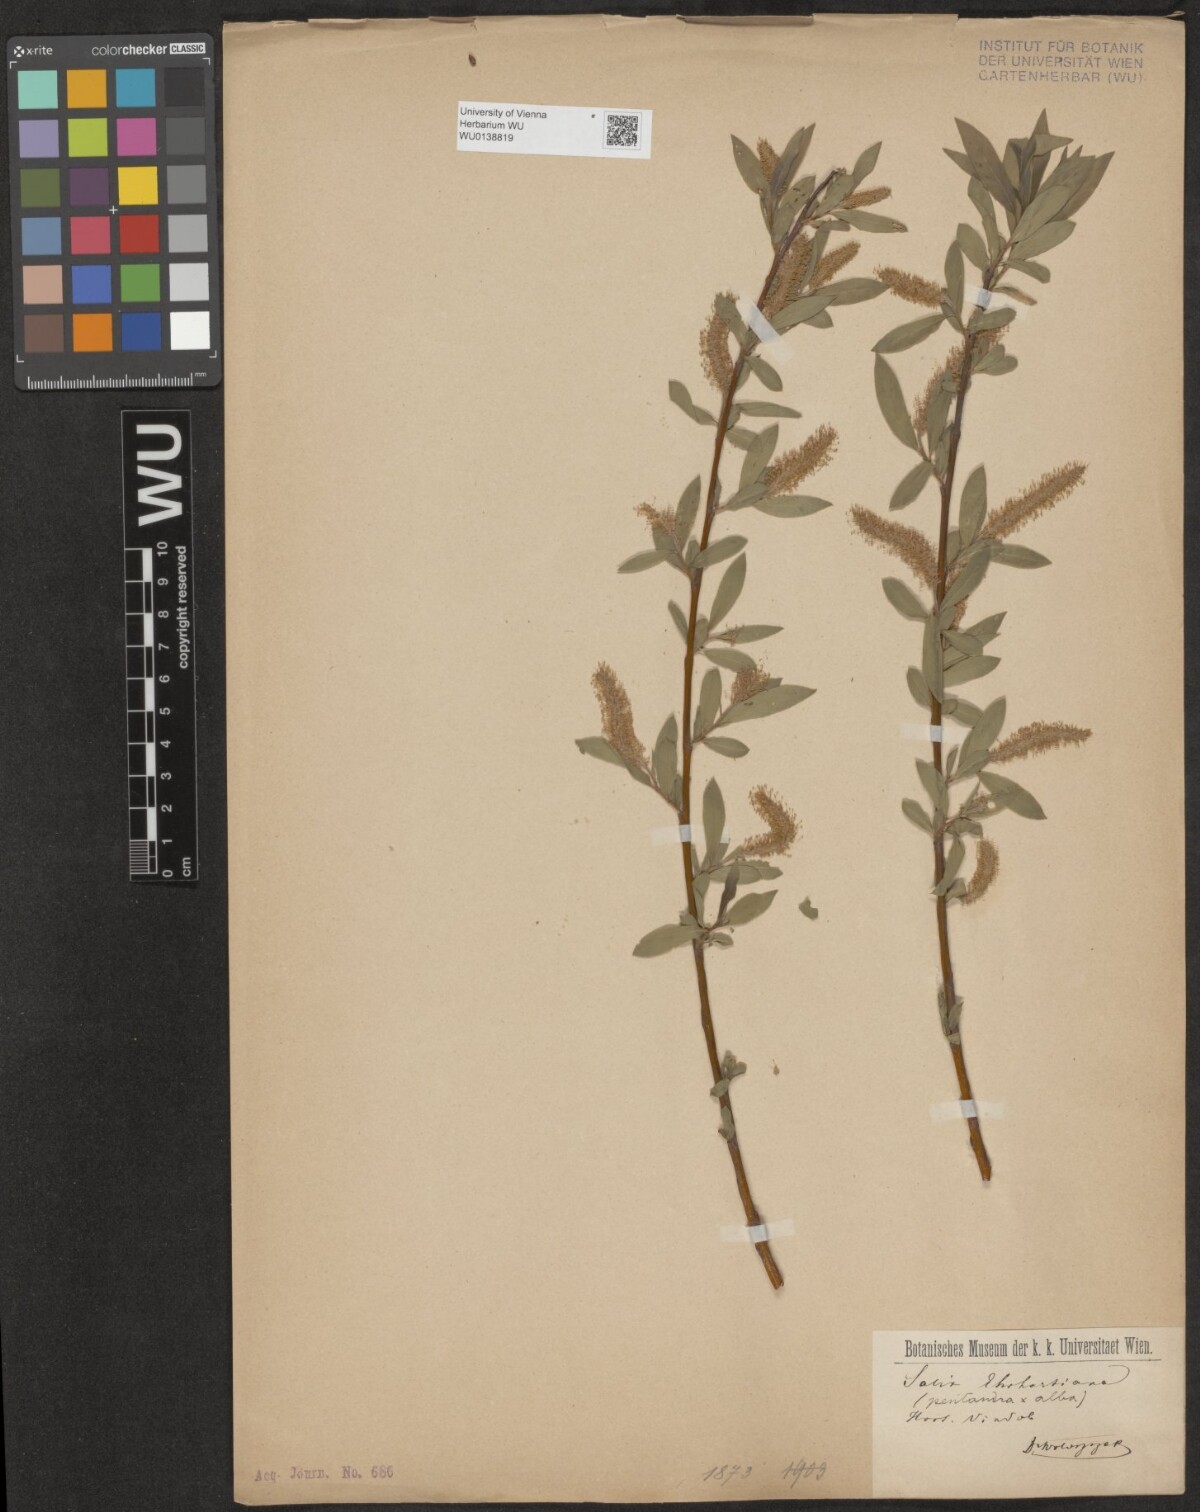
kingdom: Plantae
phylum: Tracheophyta
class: Magnoliopsida
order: Malpighiales
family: Salicaceae
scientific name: Salicaceae
